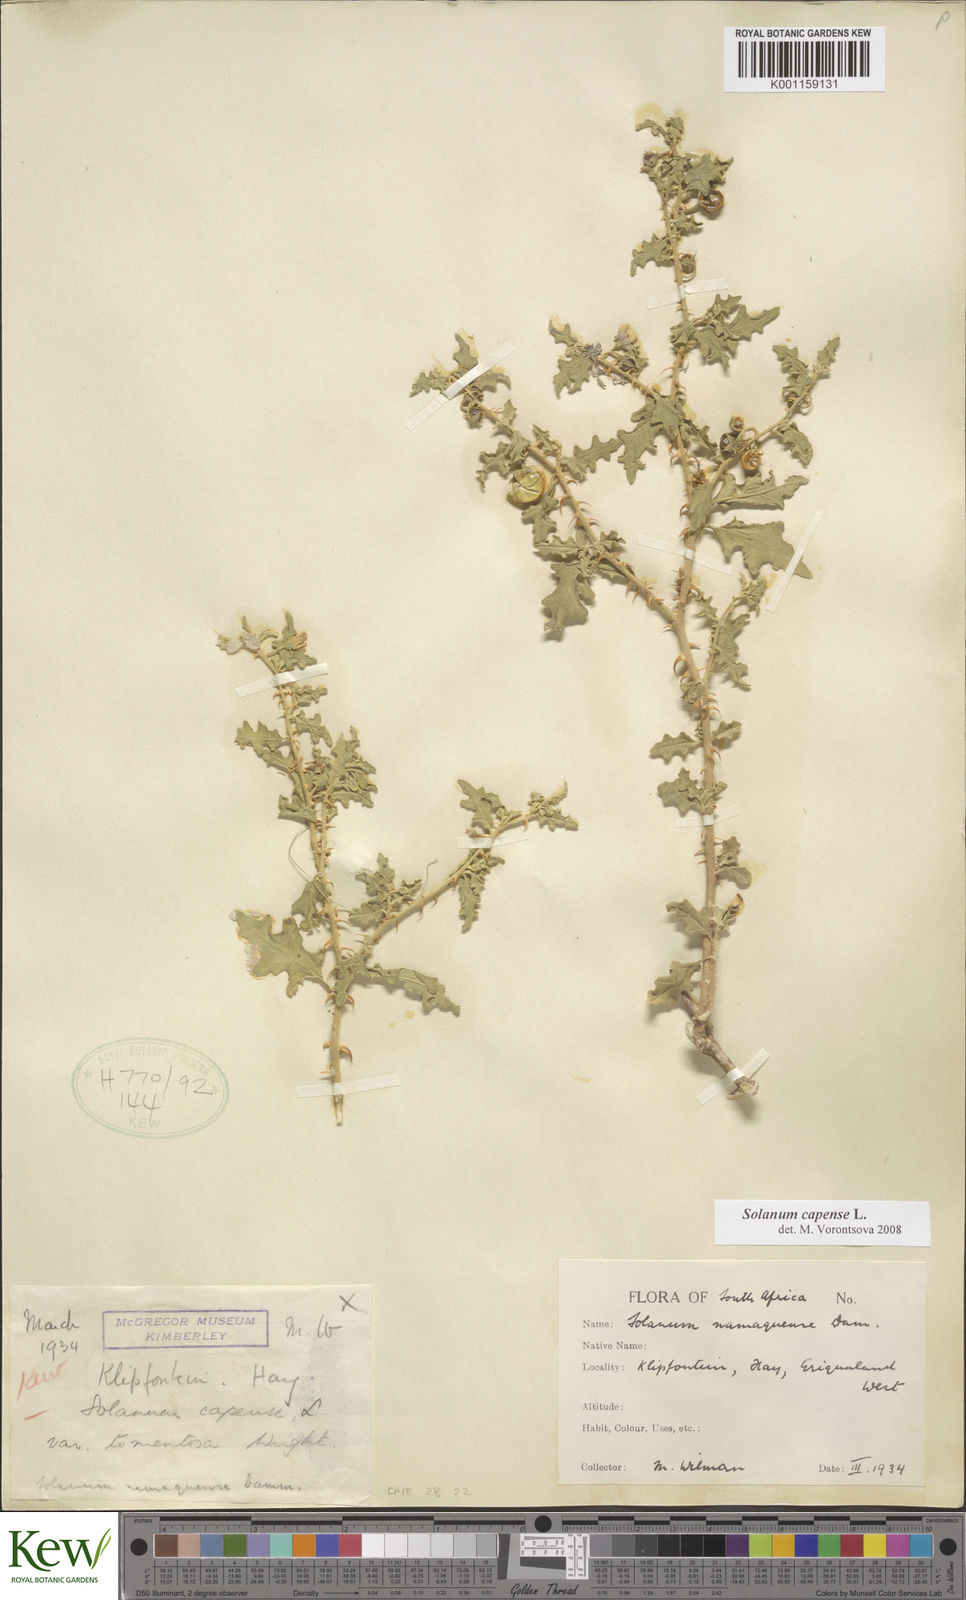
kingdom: Plantae
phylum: Tracheophyta
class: Magnoliopsida
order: Solanales
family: Solanaceae
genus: Solanum
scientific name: Solanum capense
